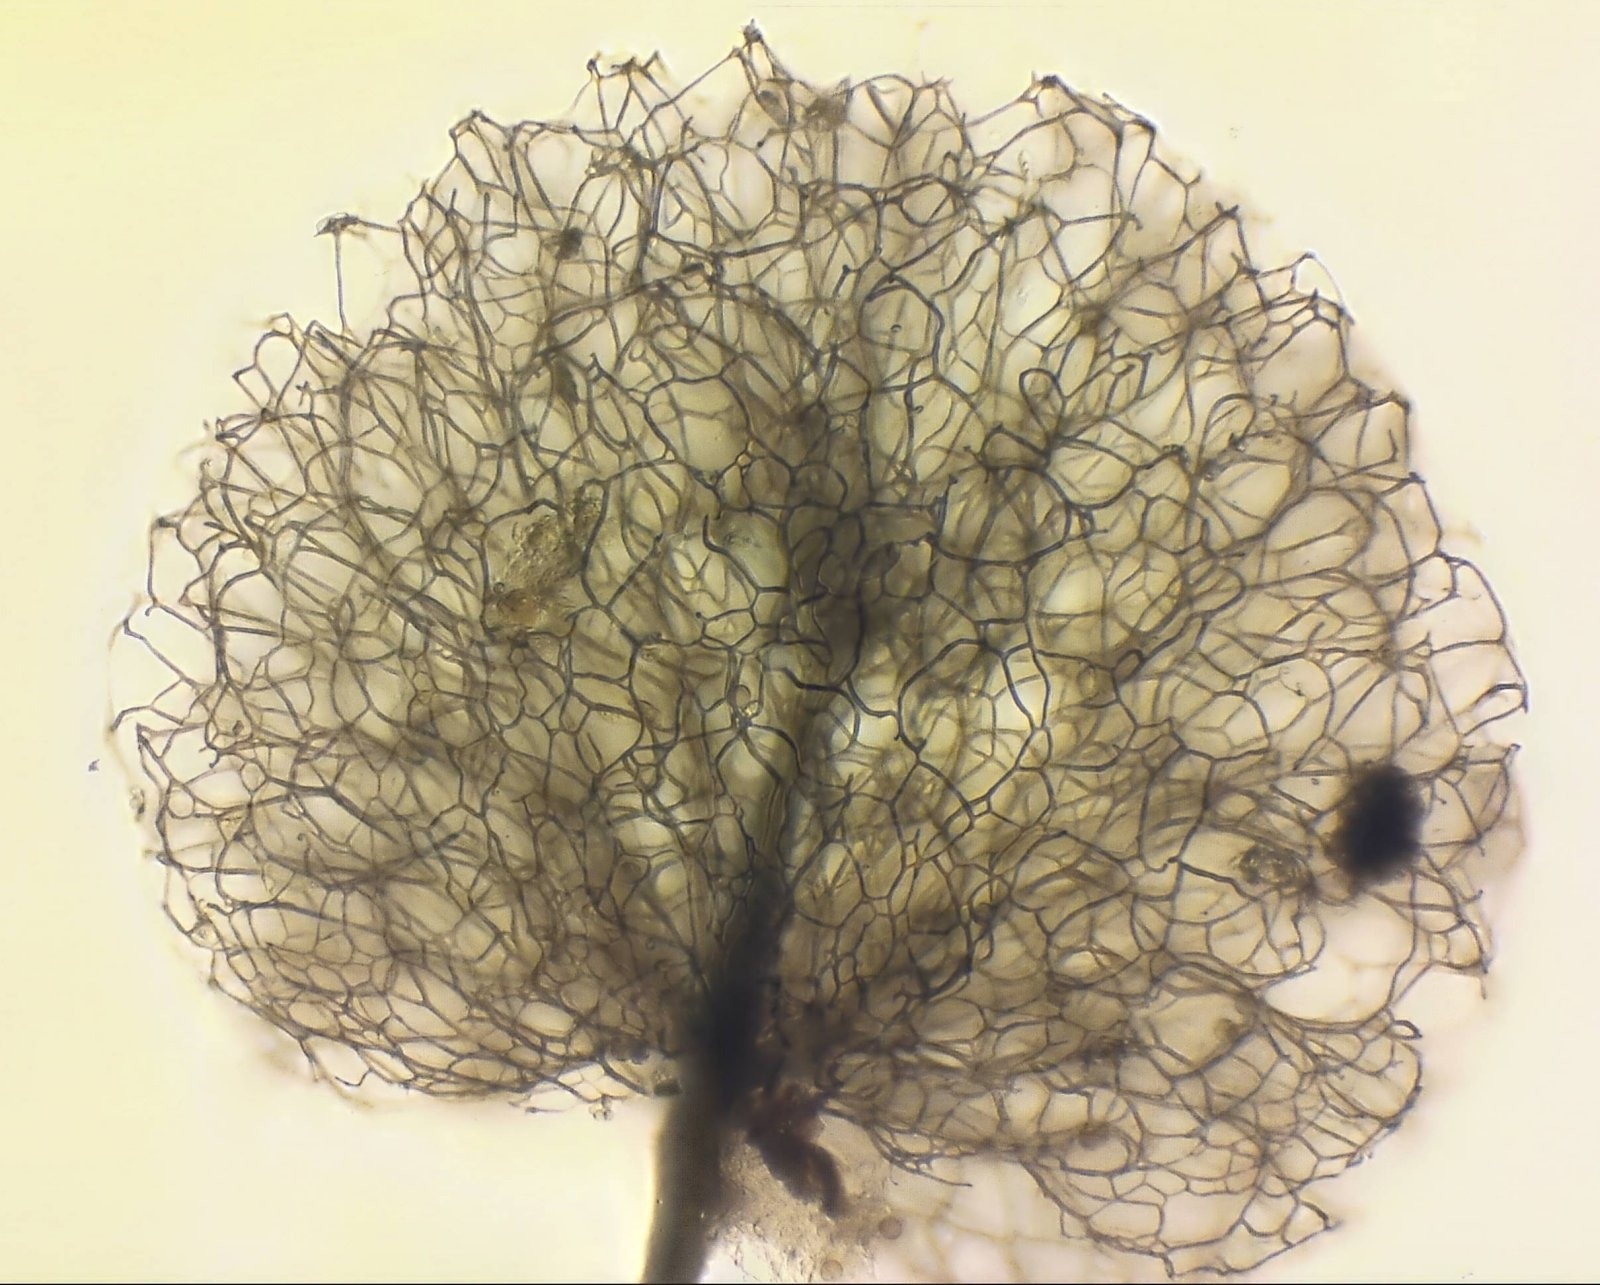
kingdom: Protozoa
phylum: Mycetozoa
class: Myxomycetes
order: Stemonitidales
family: Stemonitidaceae
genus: Comatricha
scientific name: Comatricha ellae
